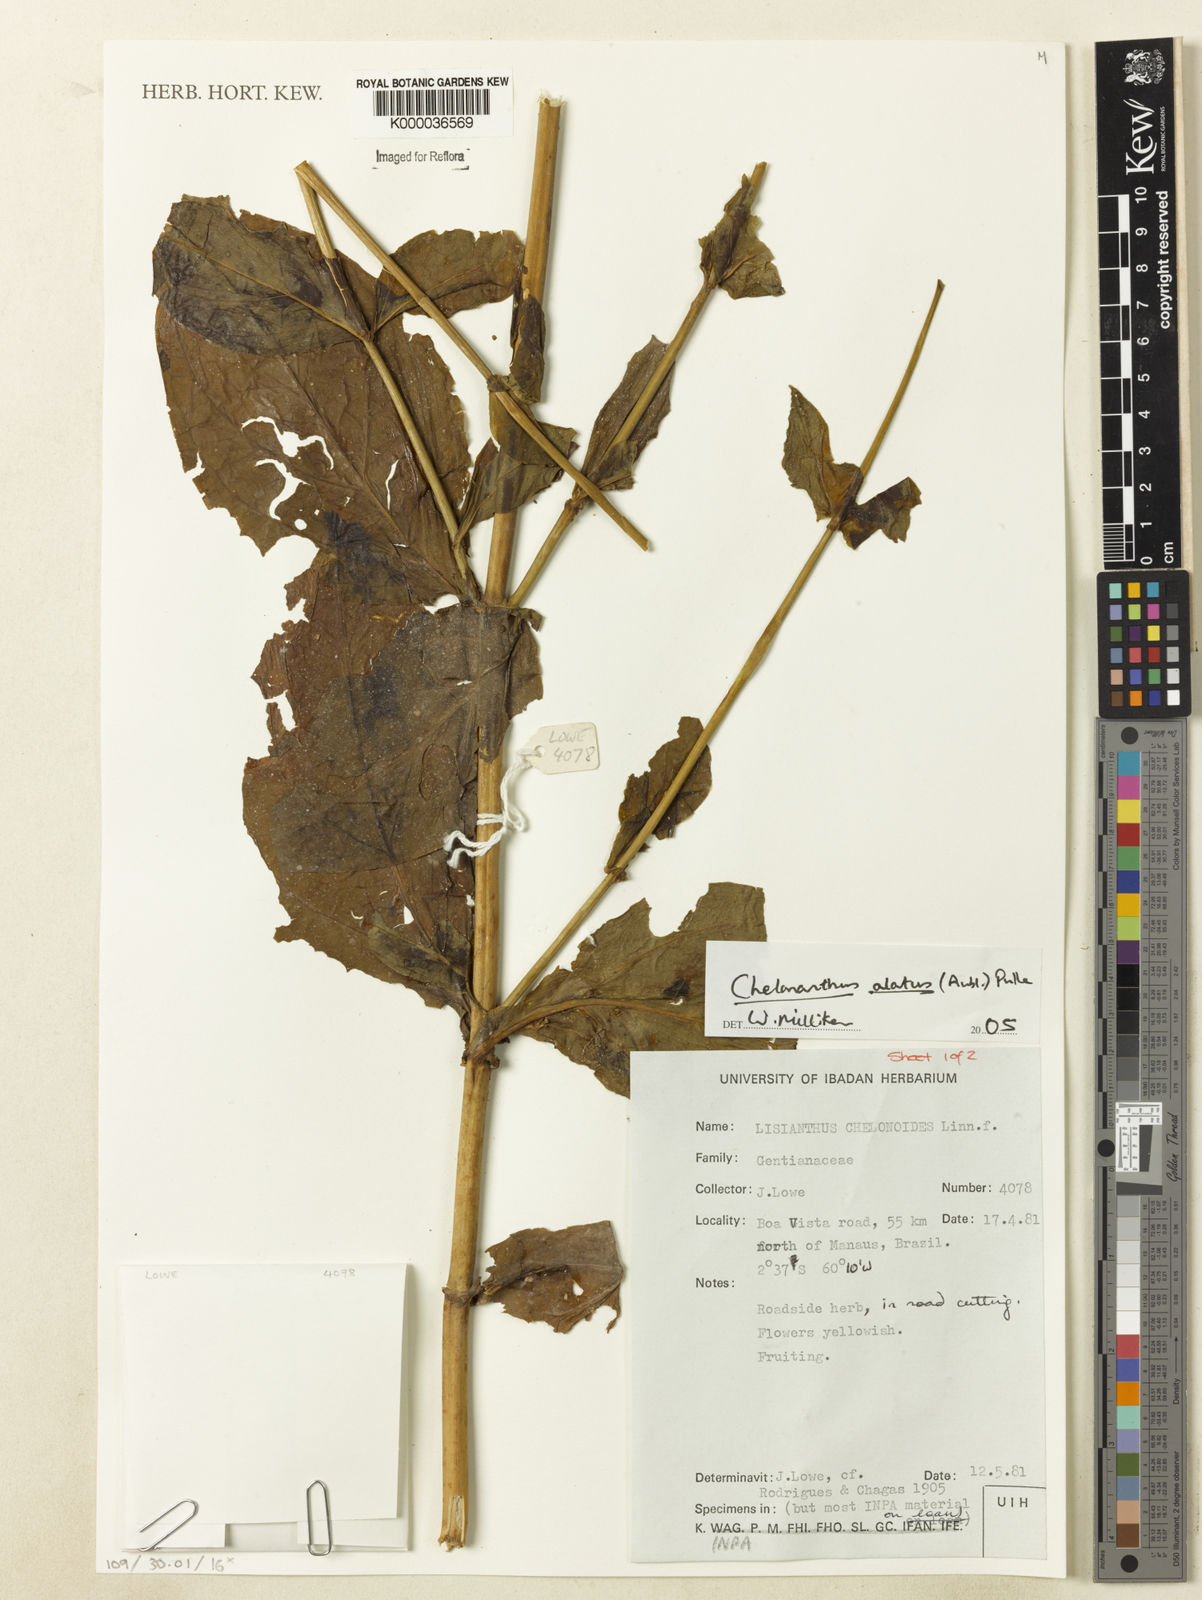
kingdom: Plantae
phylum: Tracheophyta
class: Magnoliopsida
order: Gentianales
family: Gentianaceae
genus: Chelonanthus
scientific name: Chelonanthus alatus
